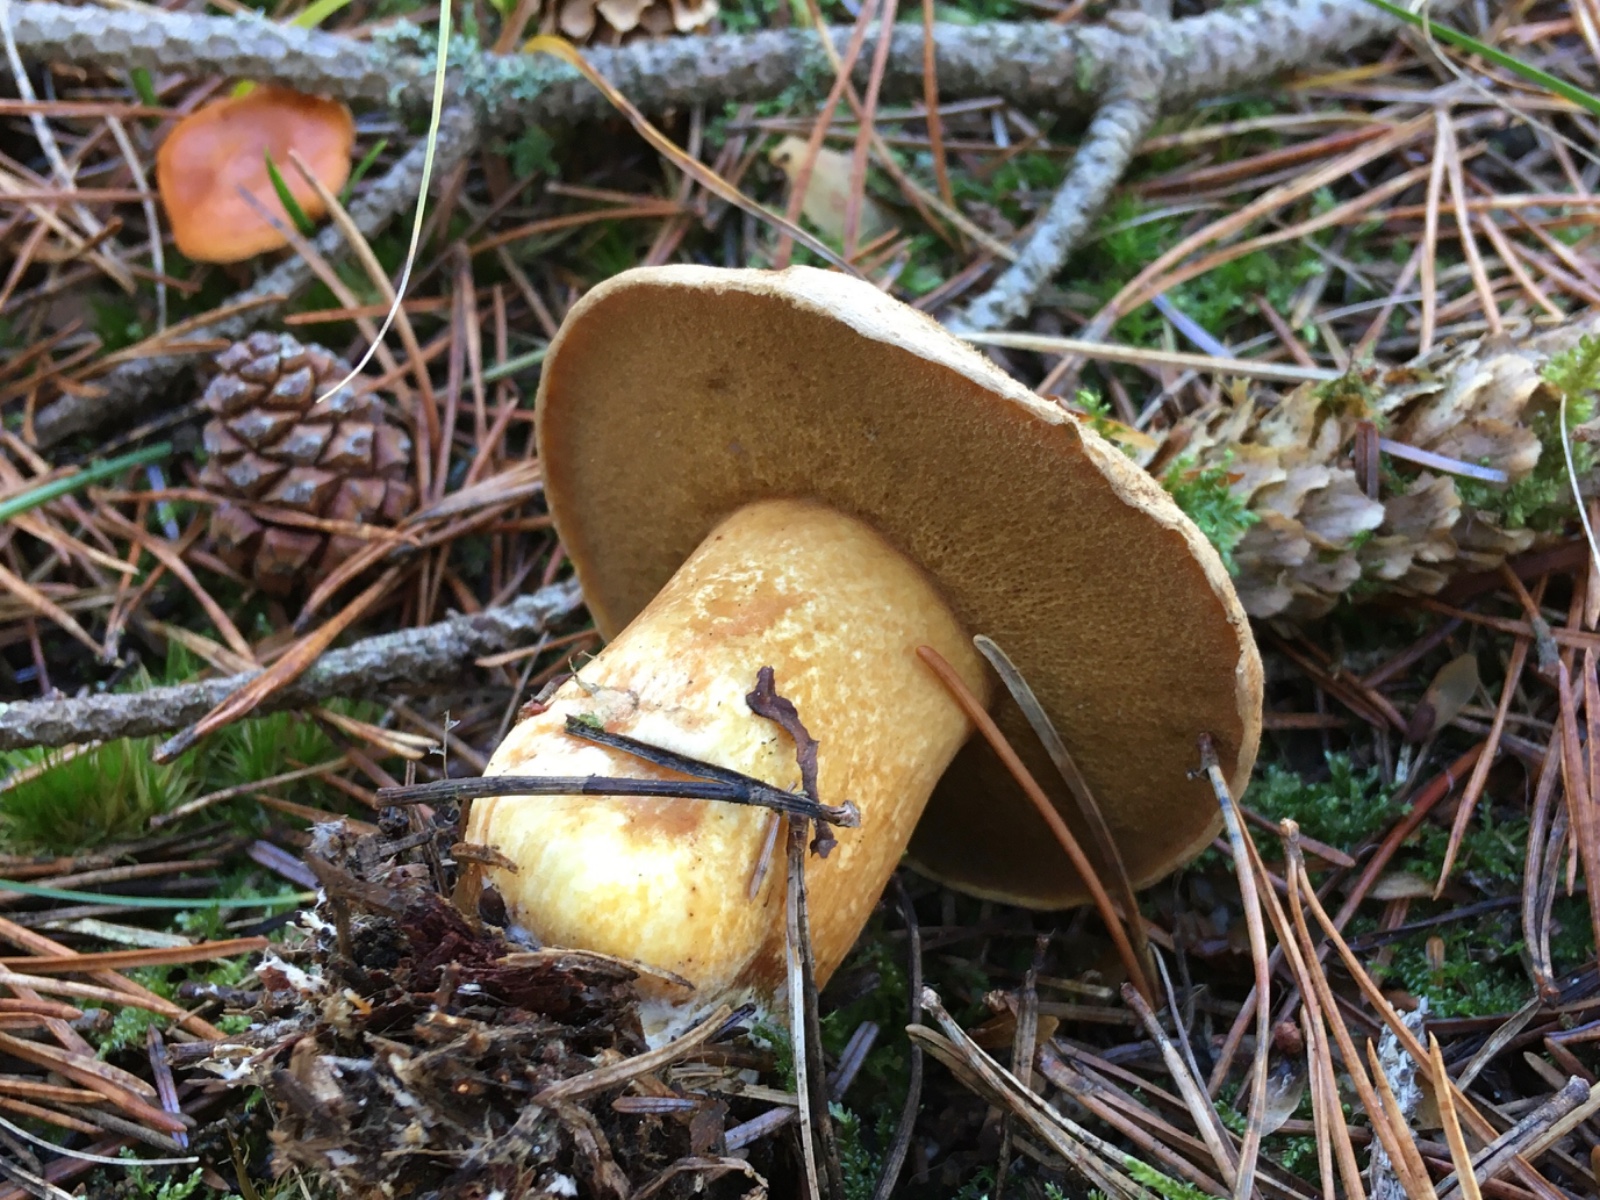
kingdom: Fungi
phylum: Basidiomycota
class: Agaricomycetes
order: Boletales
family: Suillaceae
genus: Suillus
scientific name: Suillus variegatus
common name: broget slimrørhat
